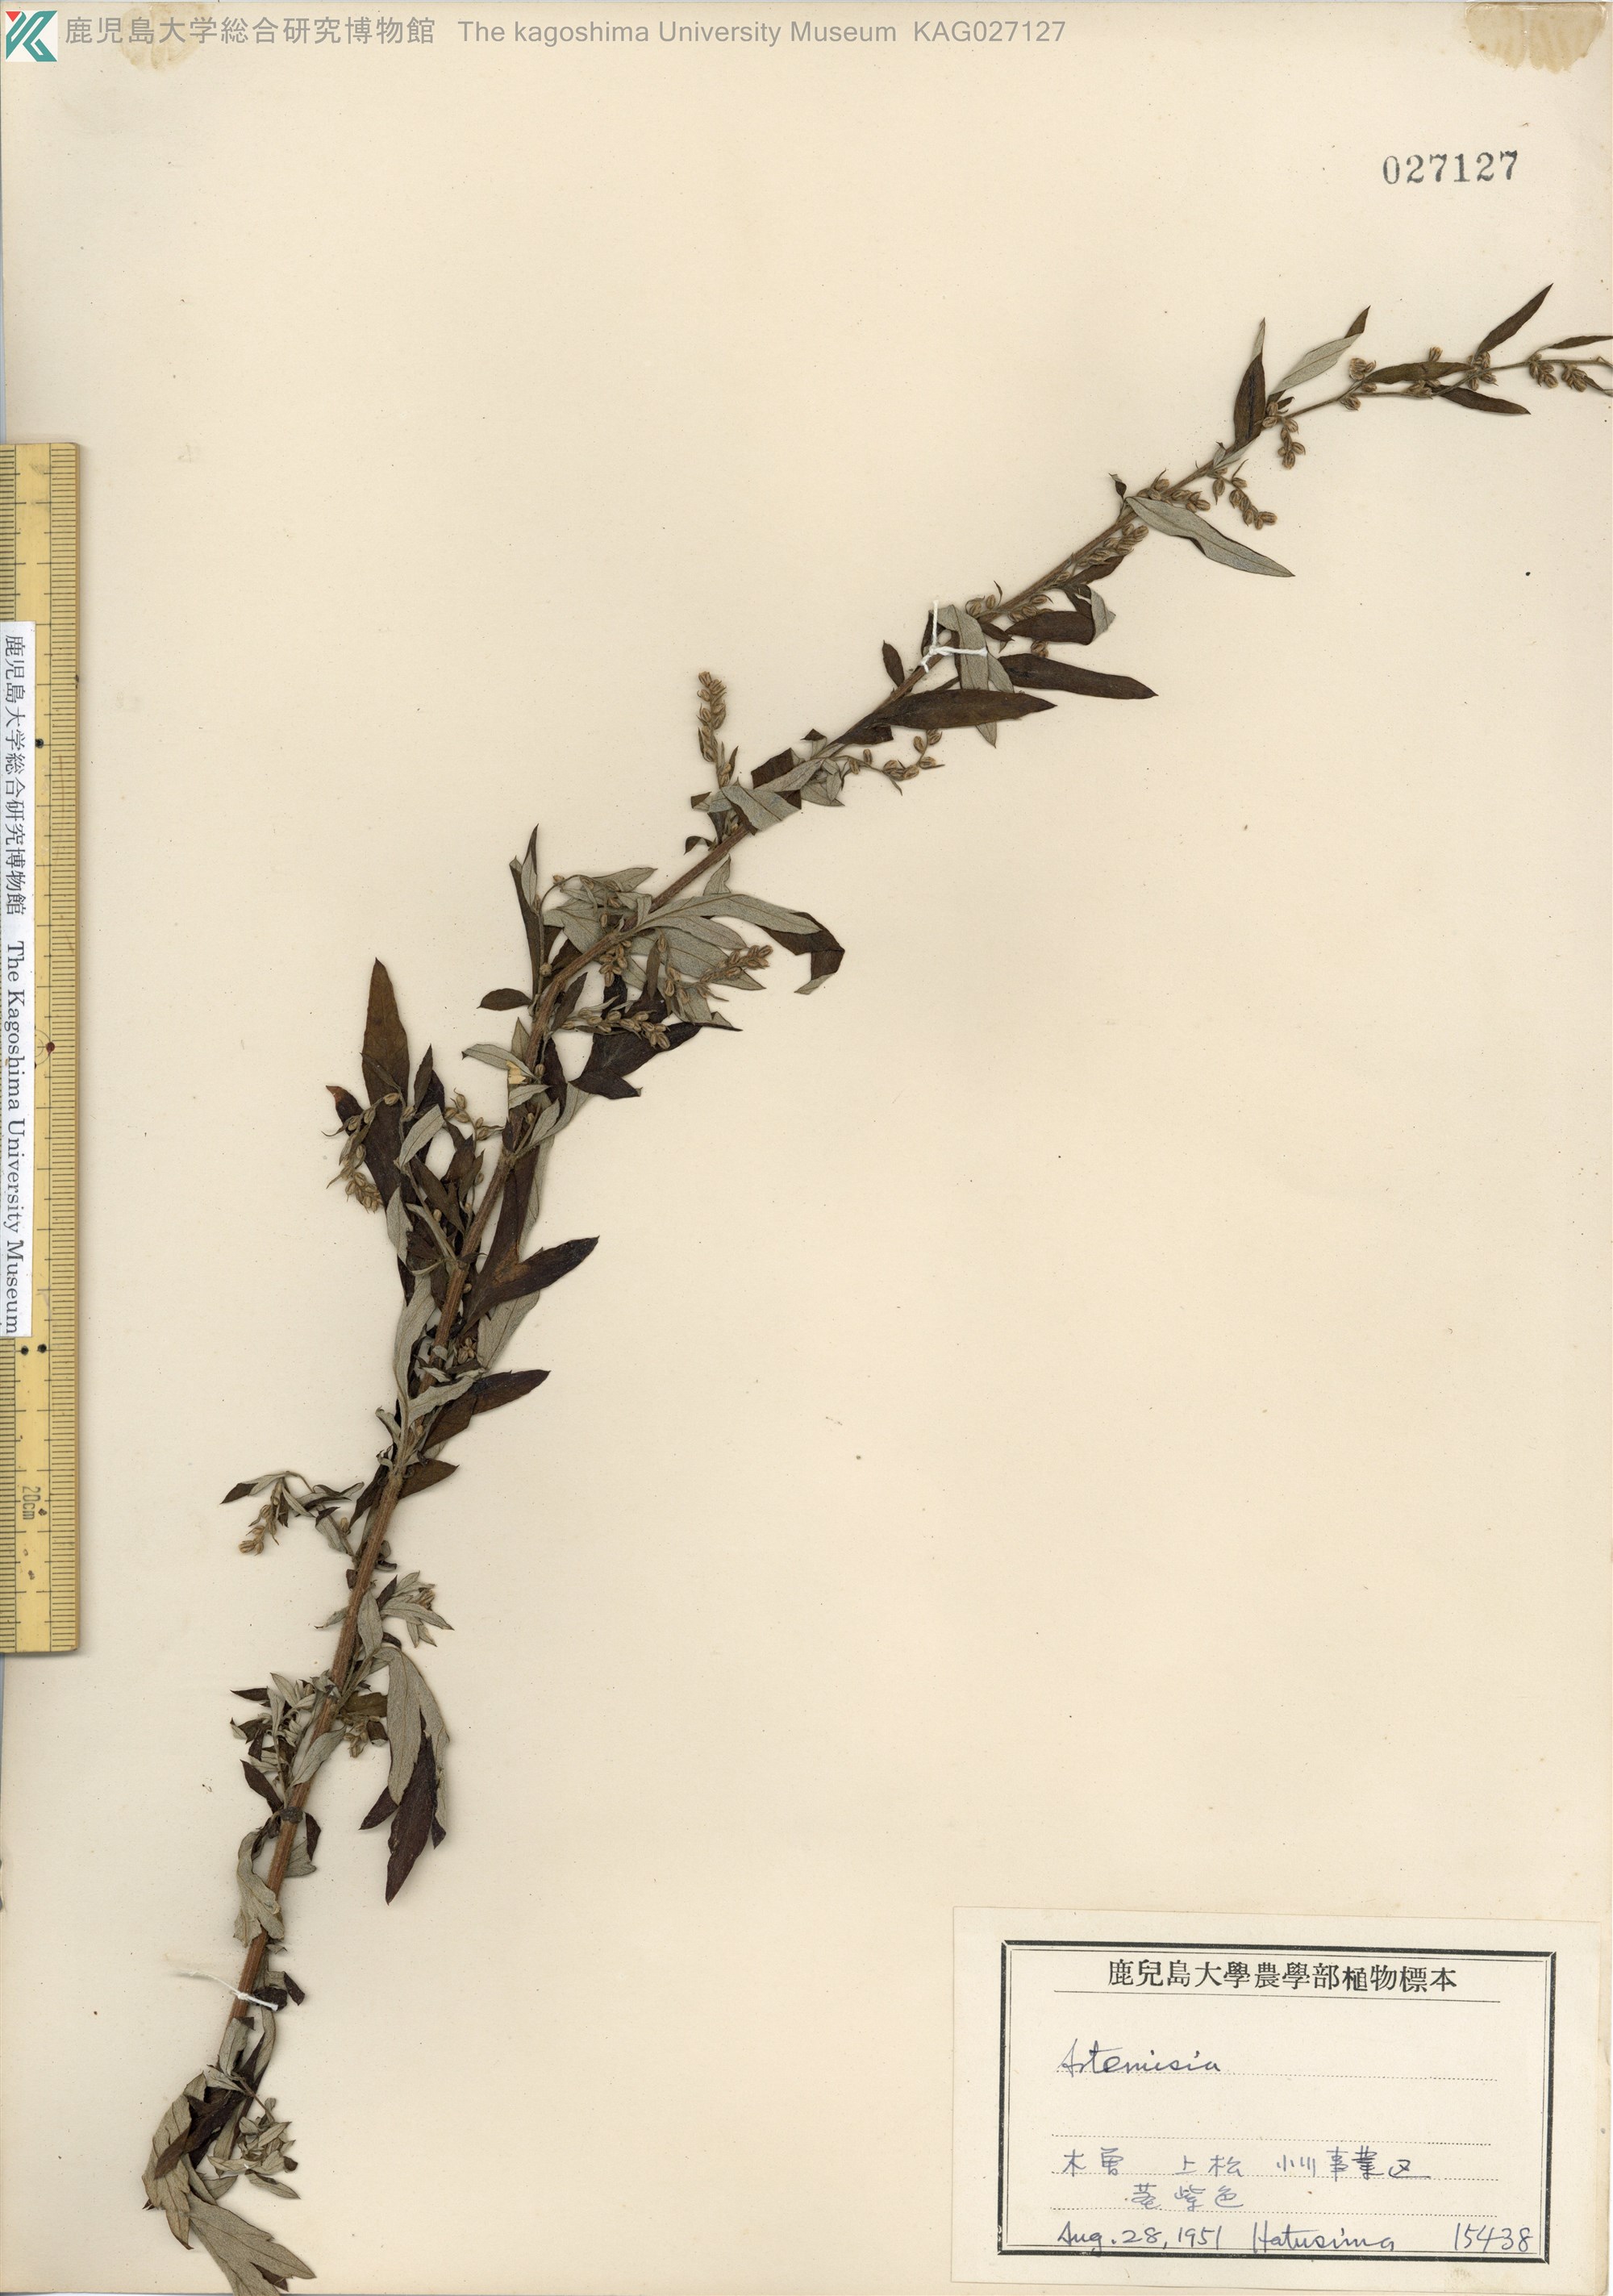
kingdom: Plantae
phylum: Tracheophyta
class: Magnoliopsida
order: Asterales
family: Asteraceae
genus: Artemisia
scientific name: Artemisia indica
